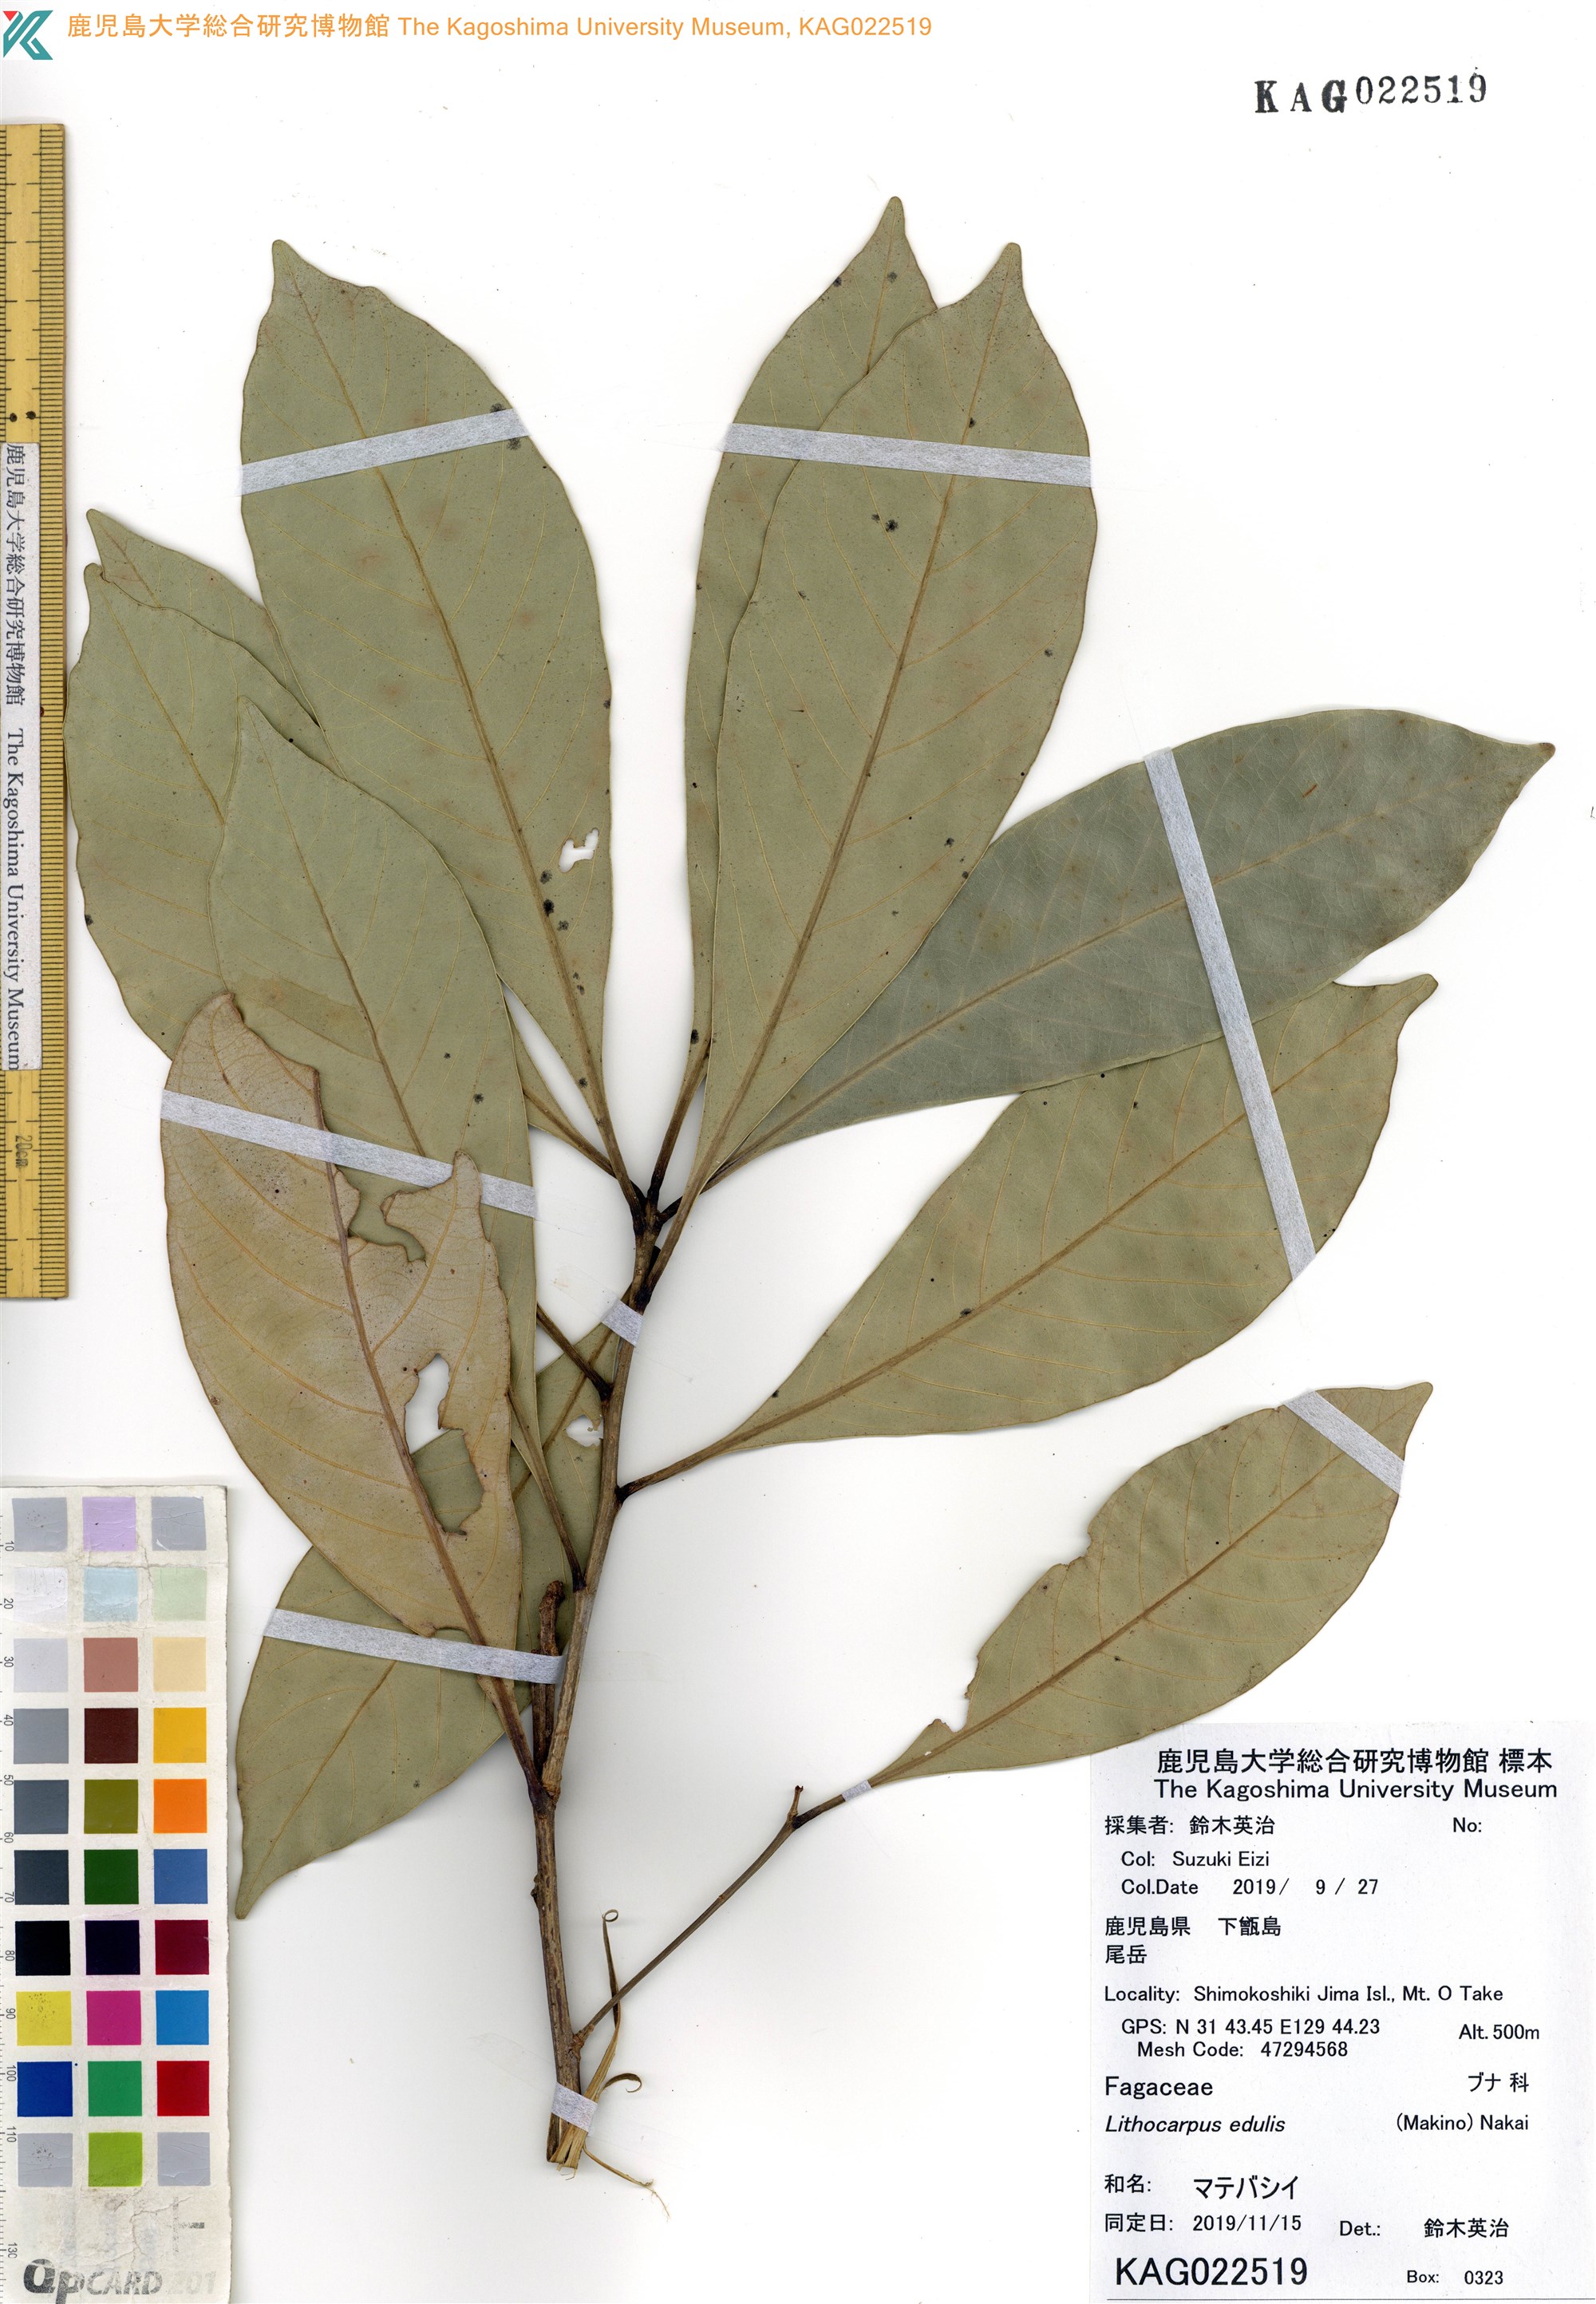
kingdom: Plantae
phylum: Tracheophyta
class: Magnoliopsida
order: Fagales
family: Fagaceae
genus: Lithocarpus
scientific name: Lithocarpus edulis
